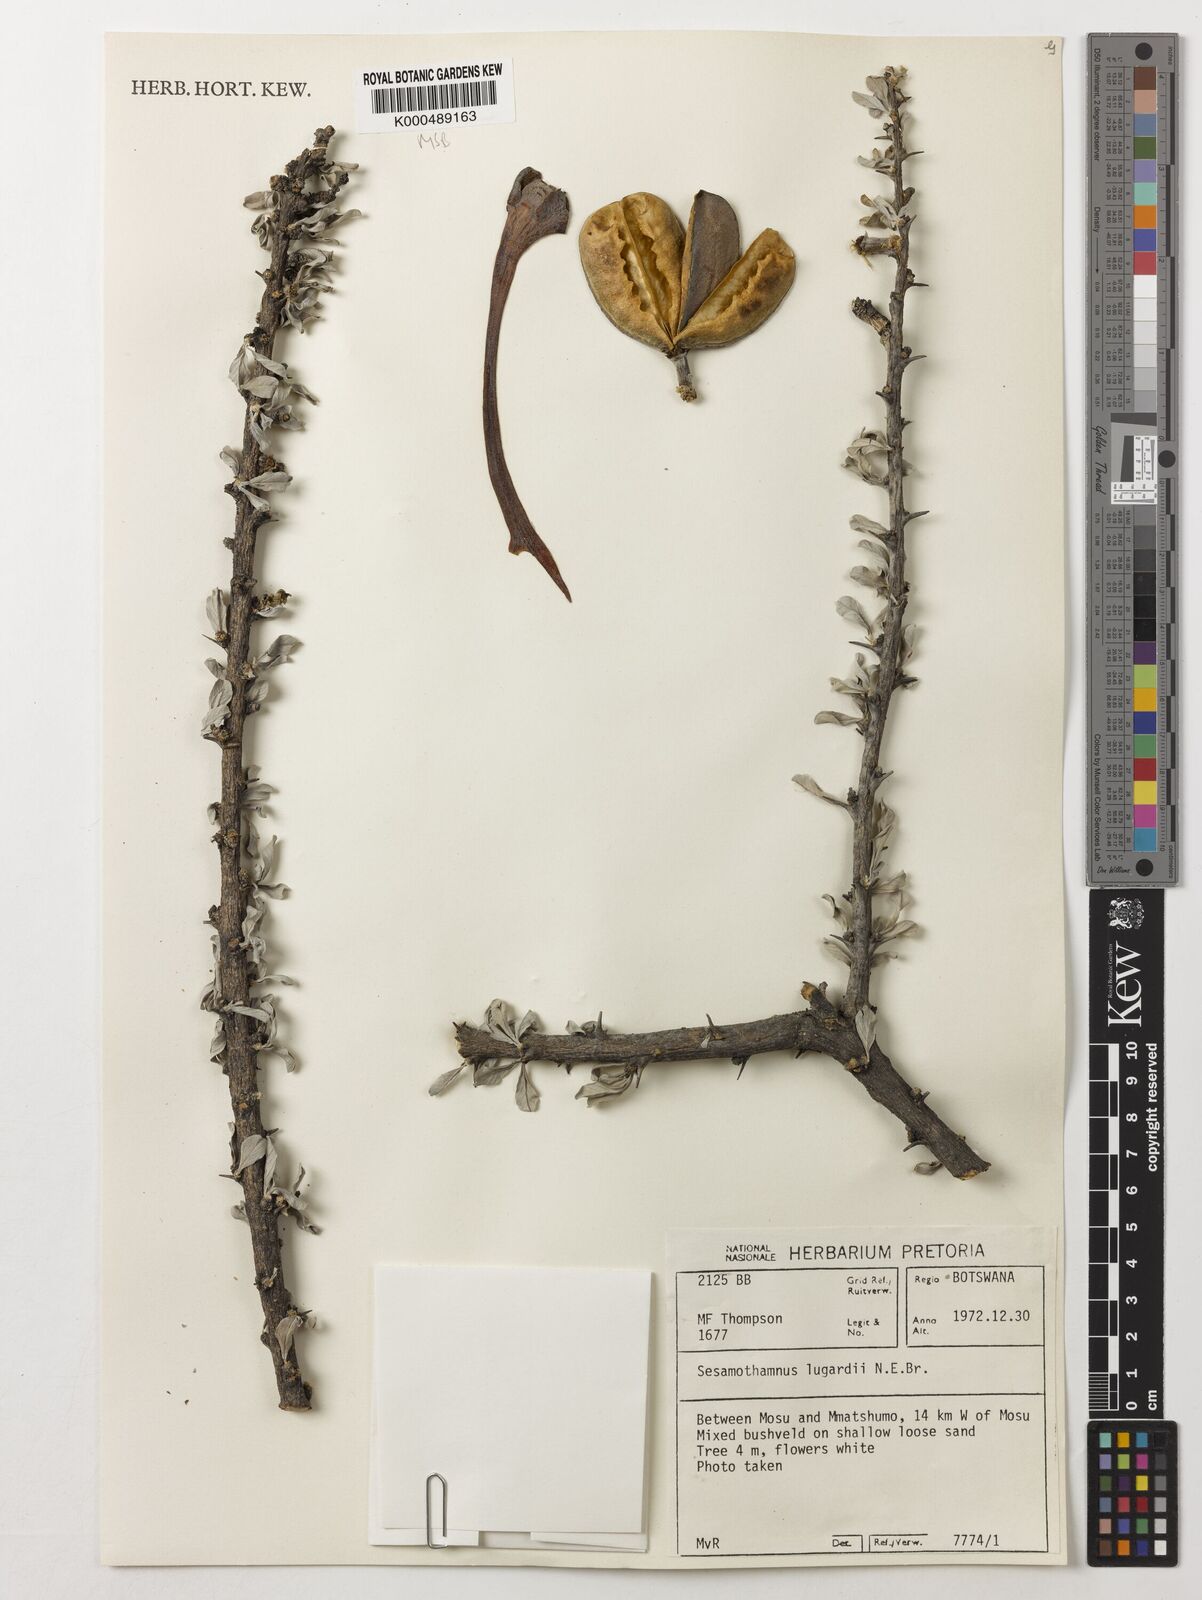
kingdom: Plantae
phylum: Tracheophyta
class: Magnoliopsida
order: Lamiales
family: Pedaliaceae
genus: Sesamothamnus
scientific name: Sesamothamnus lugardii
